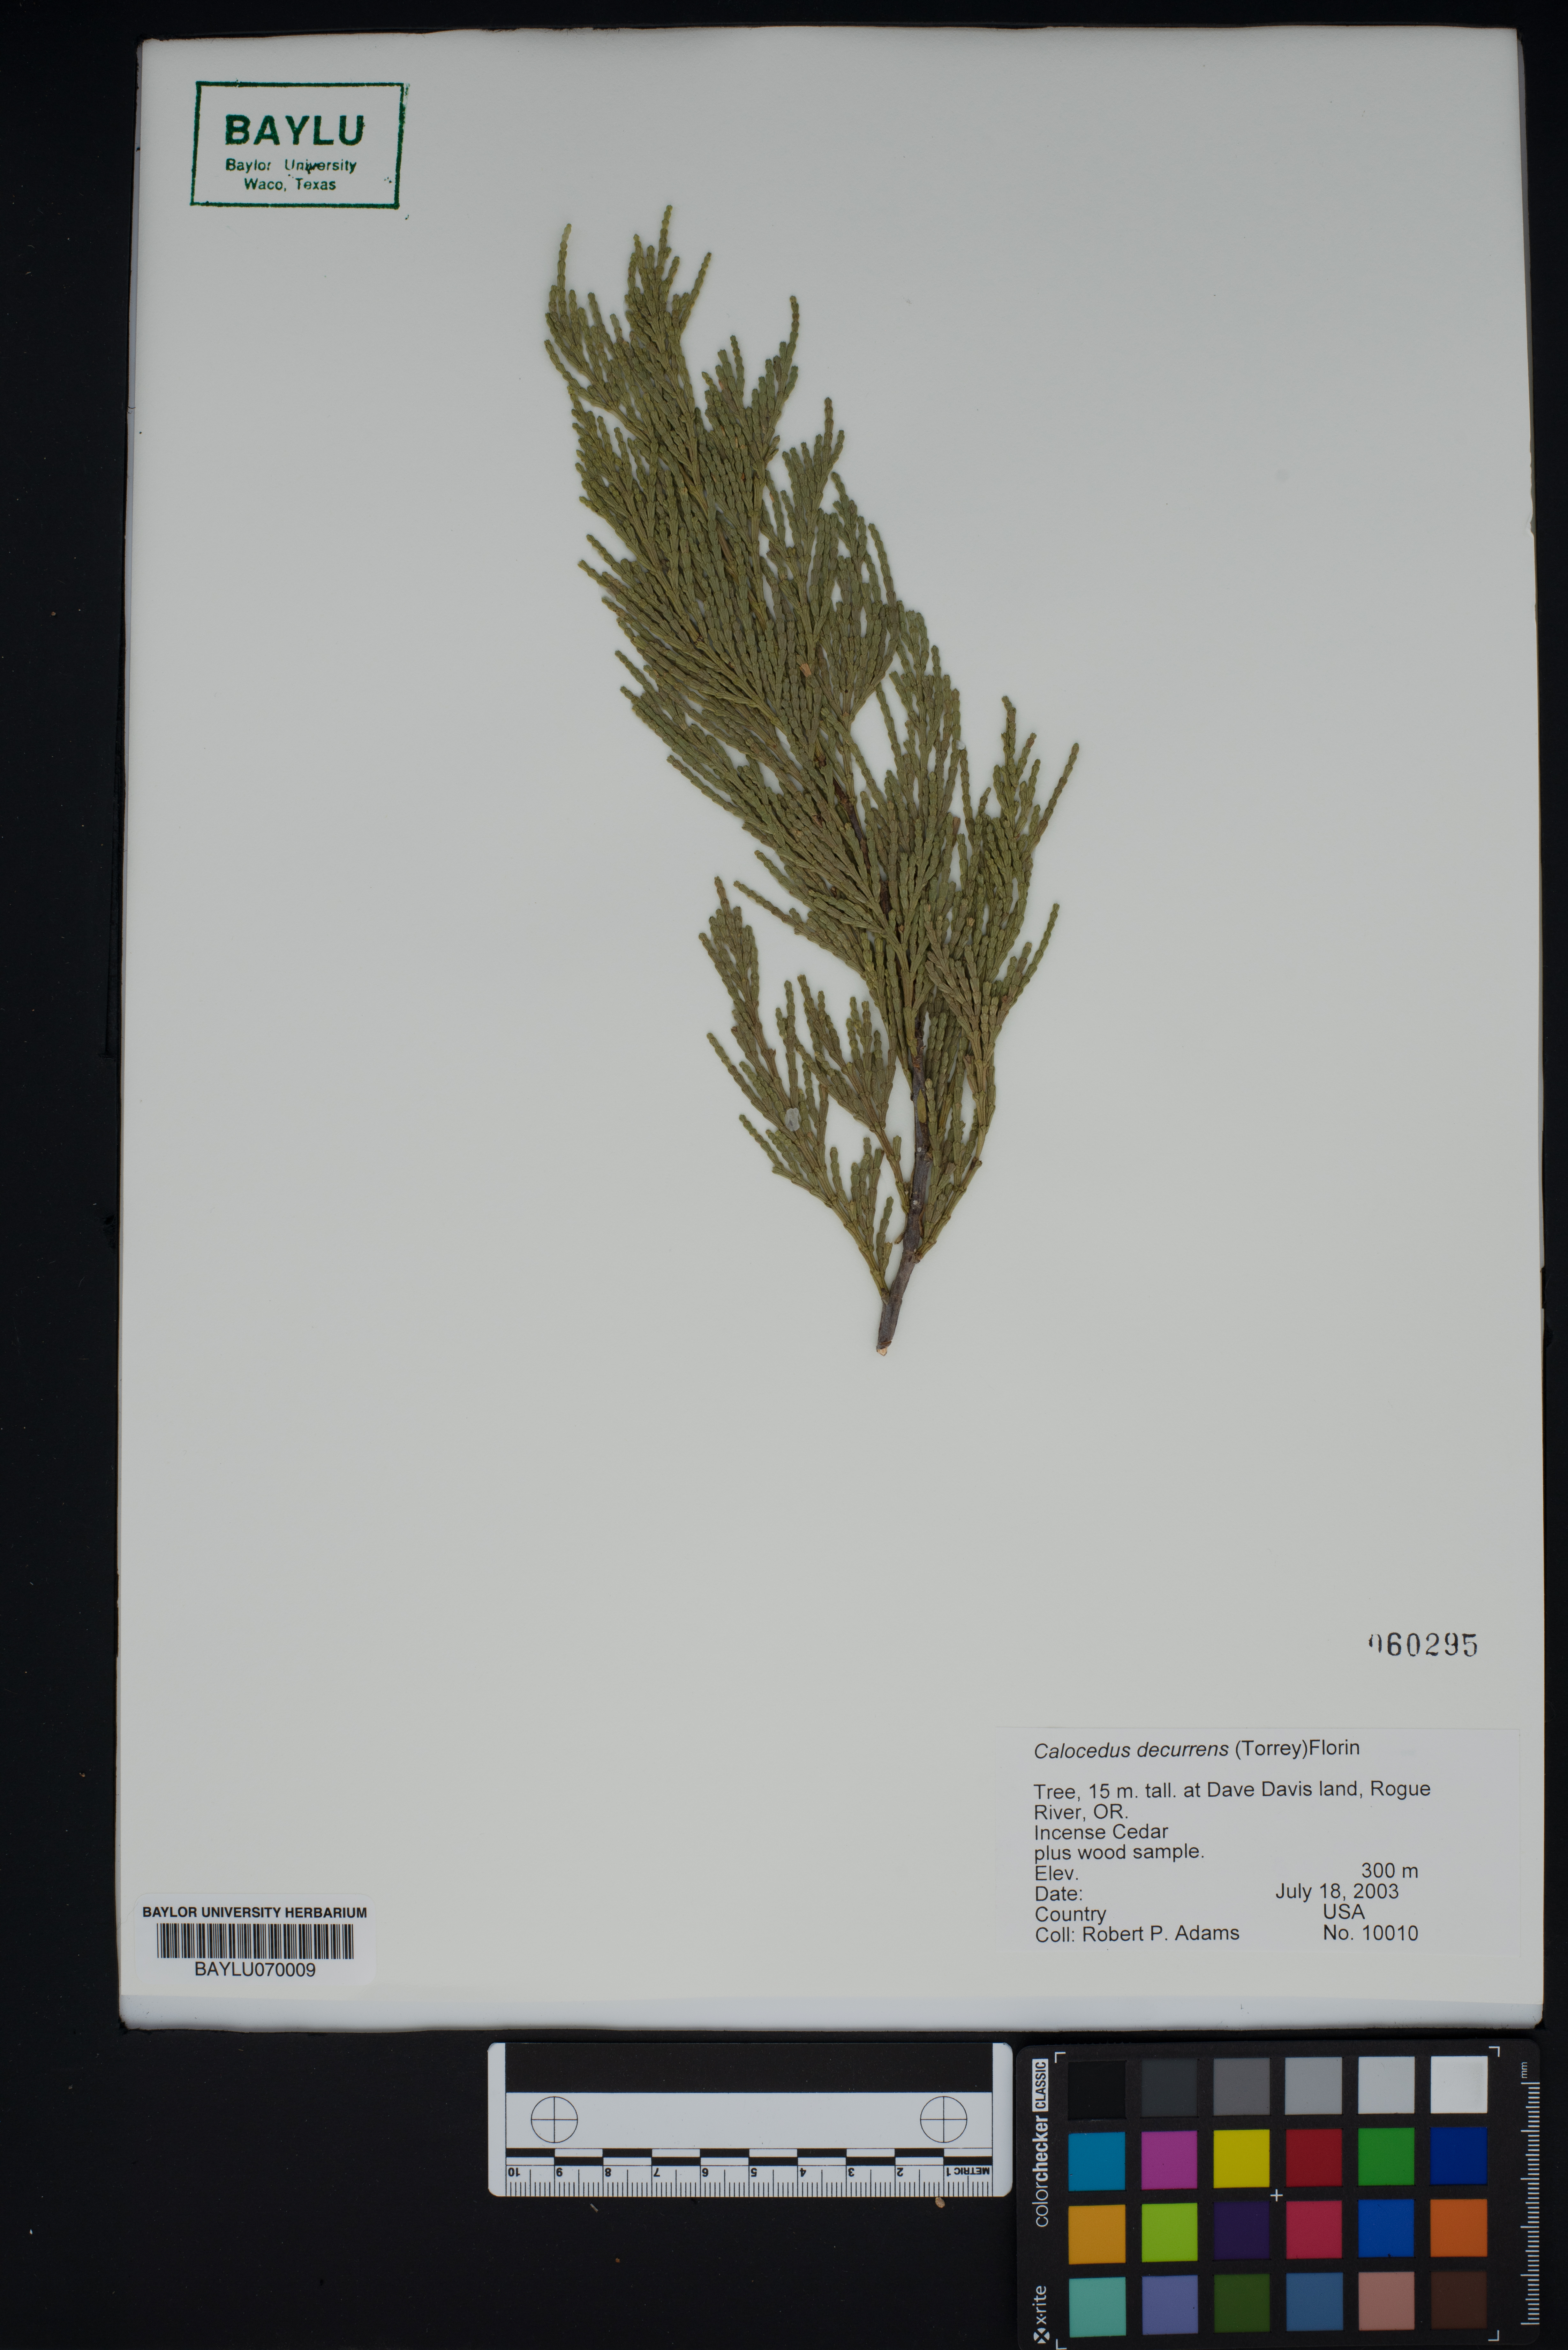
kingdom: Plantae
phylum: Tracheophyta
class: Pinopsida
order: Pinales
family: Cupressaceae
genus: Calocedrus
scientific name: Calocedrus decurrens
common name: Californian incense-cedar
